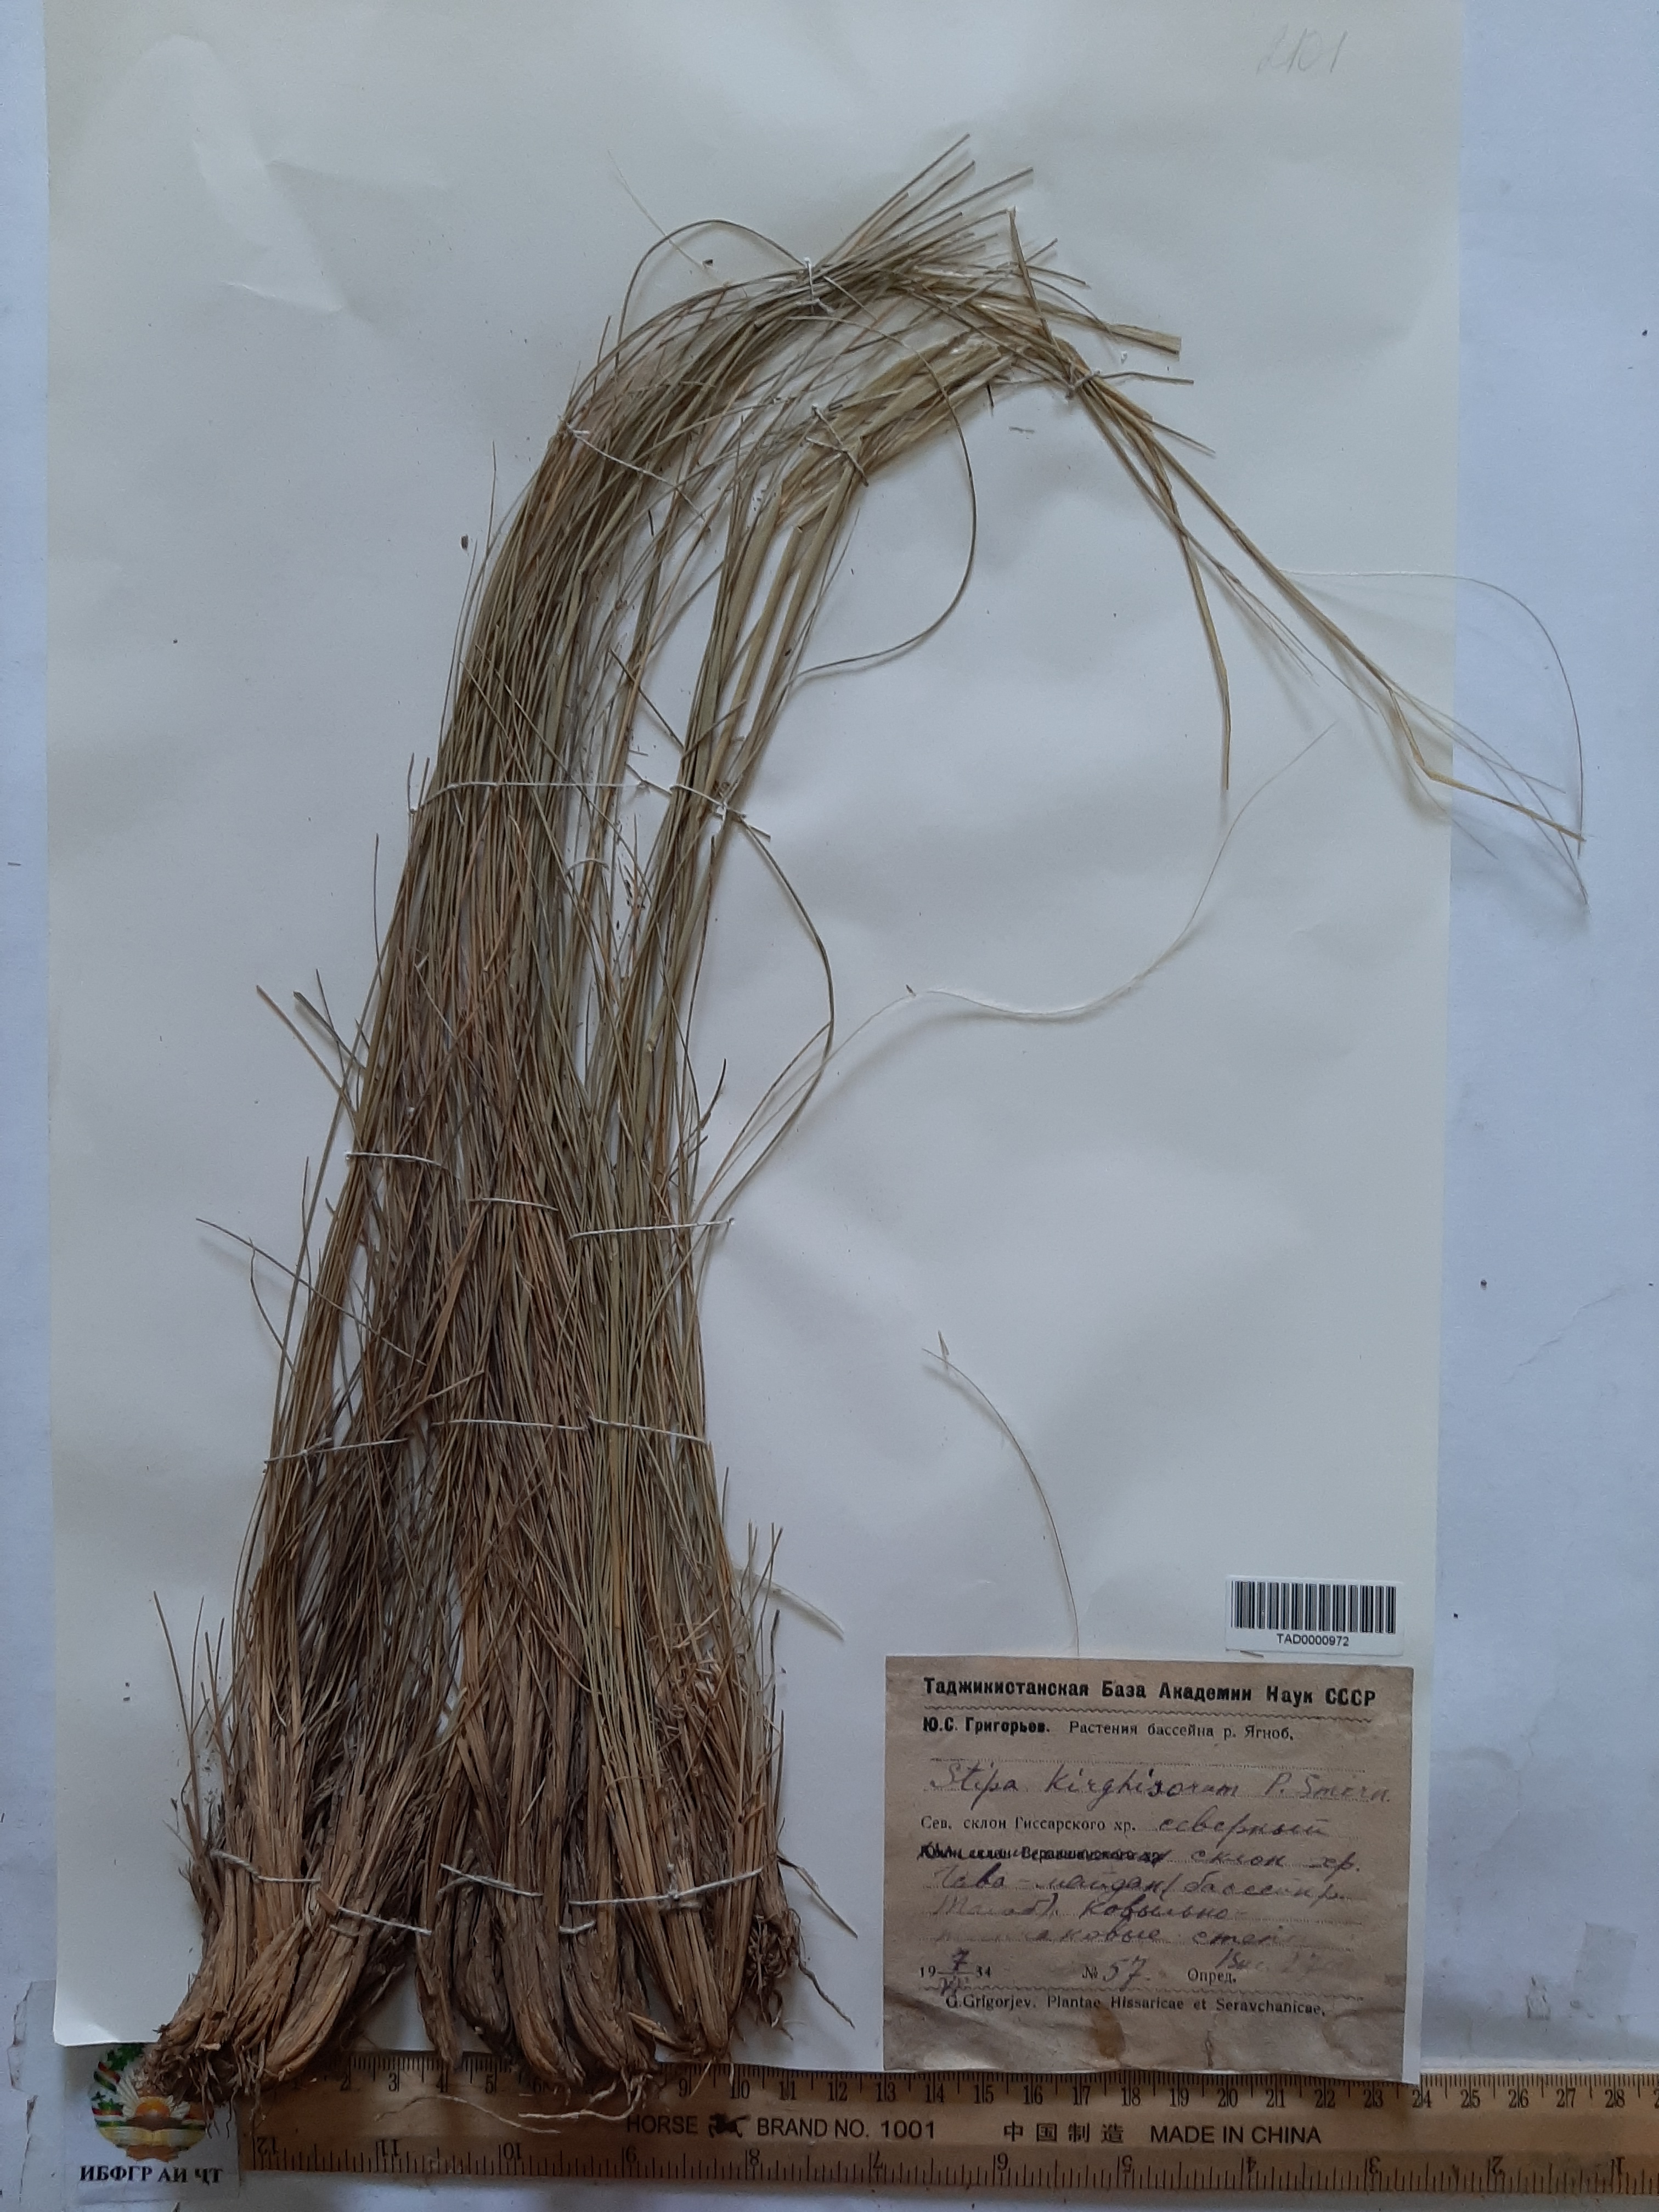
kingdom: Plantae
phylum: Tracheophyta
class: Liliopsida
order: Poales
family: Poaceae
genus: Stipa
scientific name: Stipa kirghisorum
